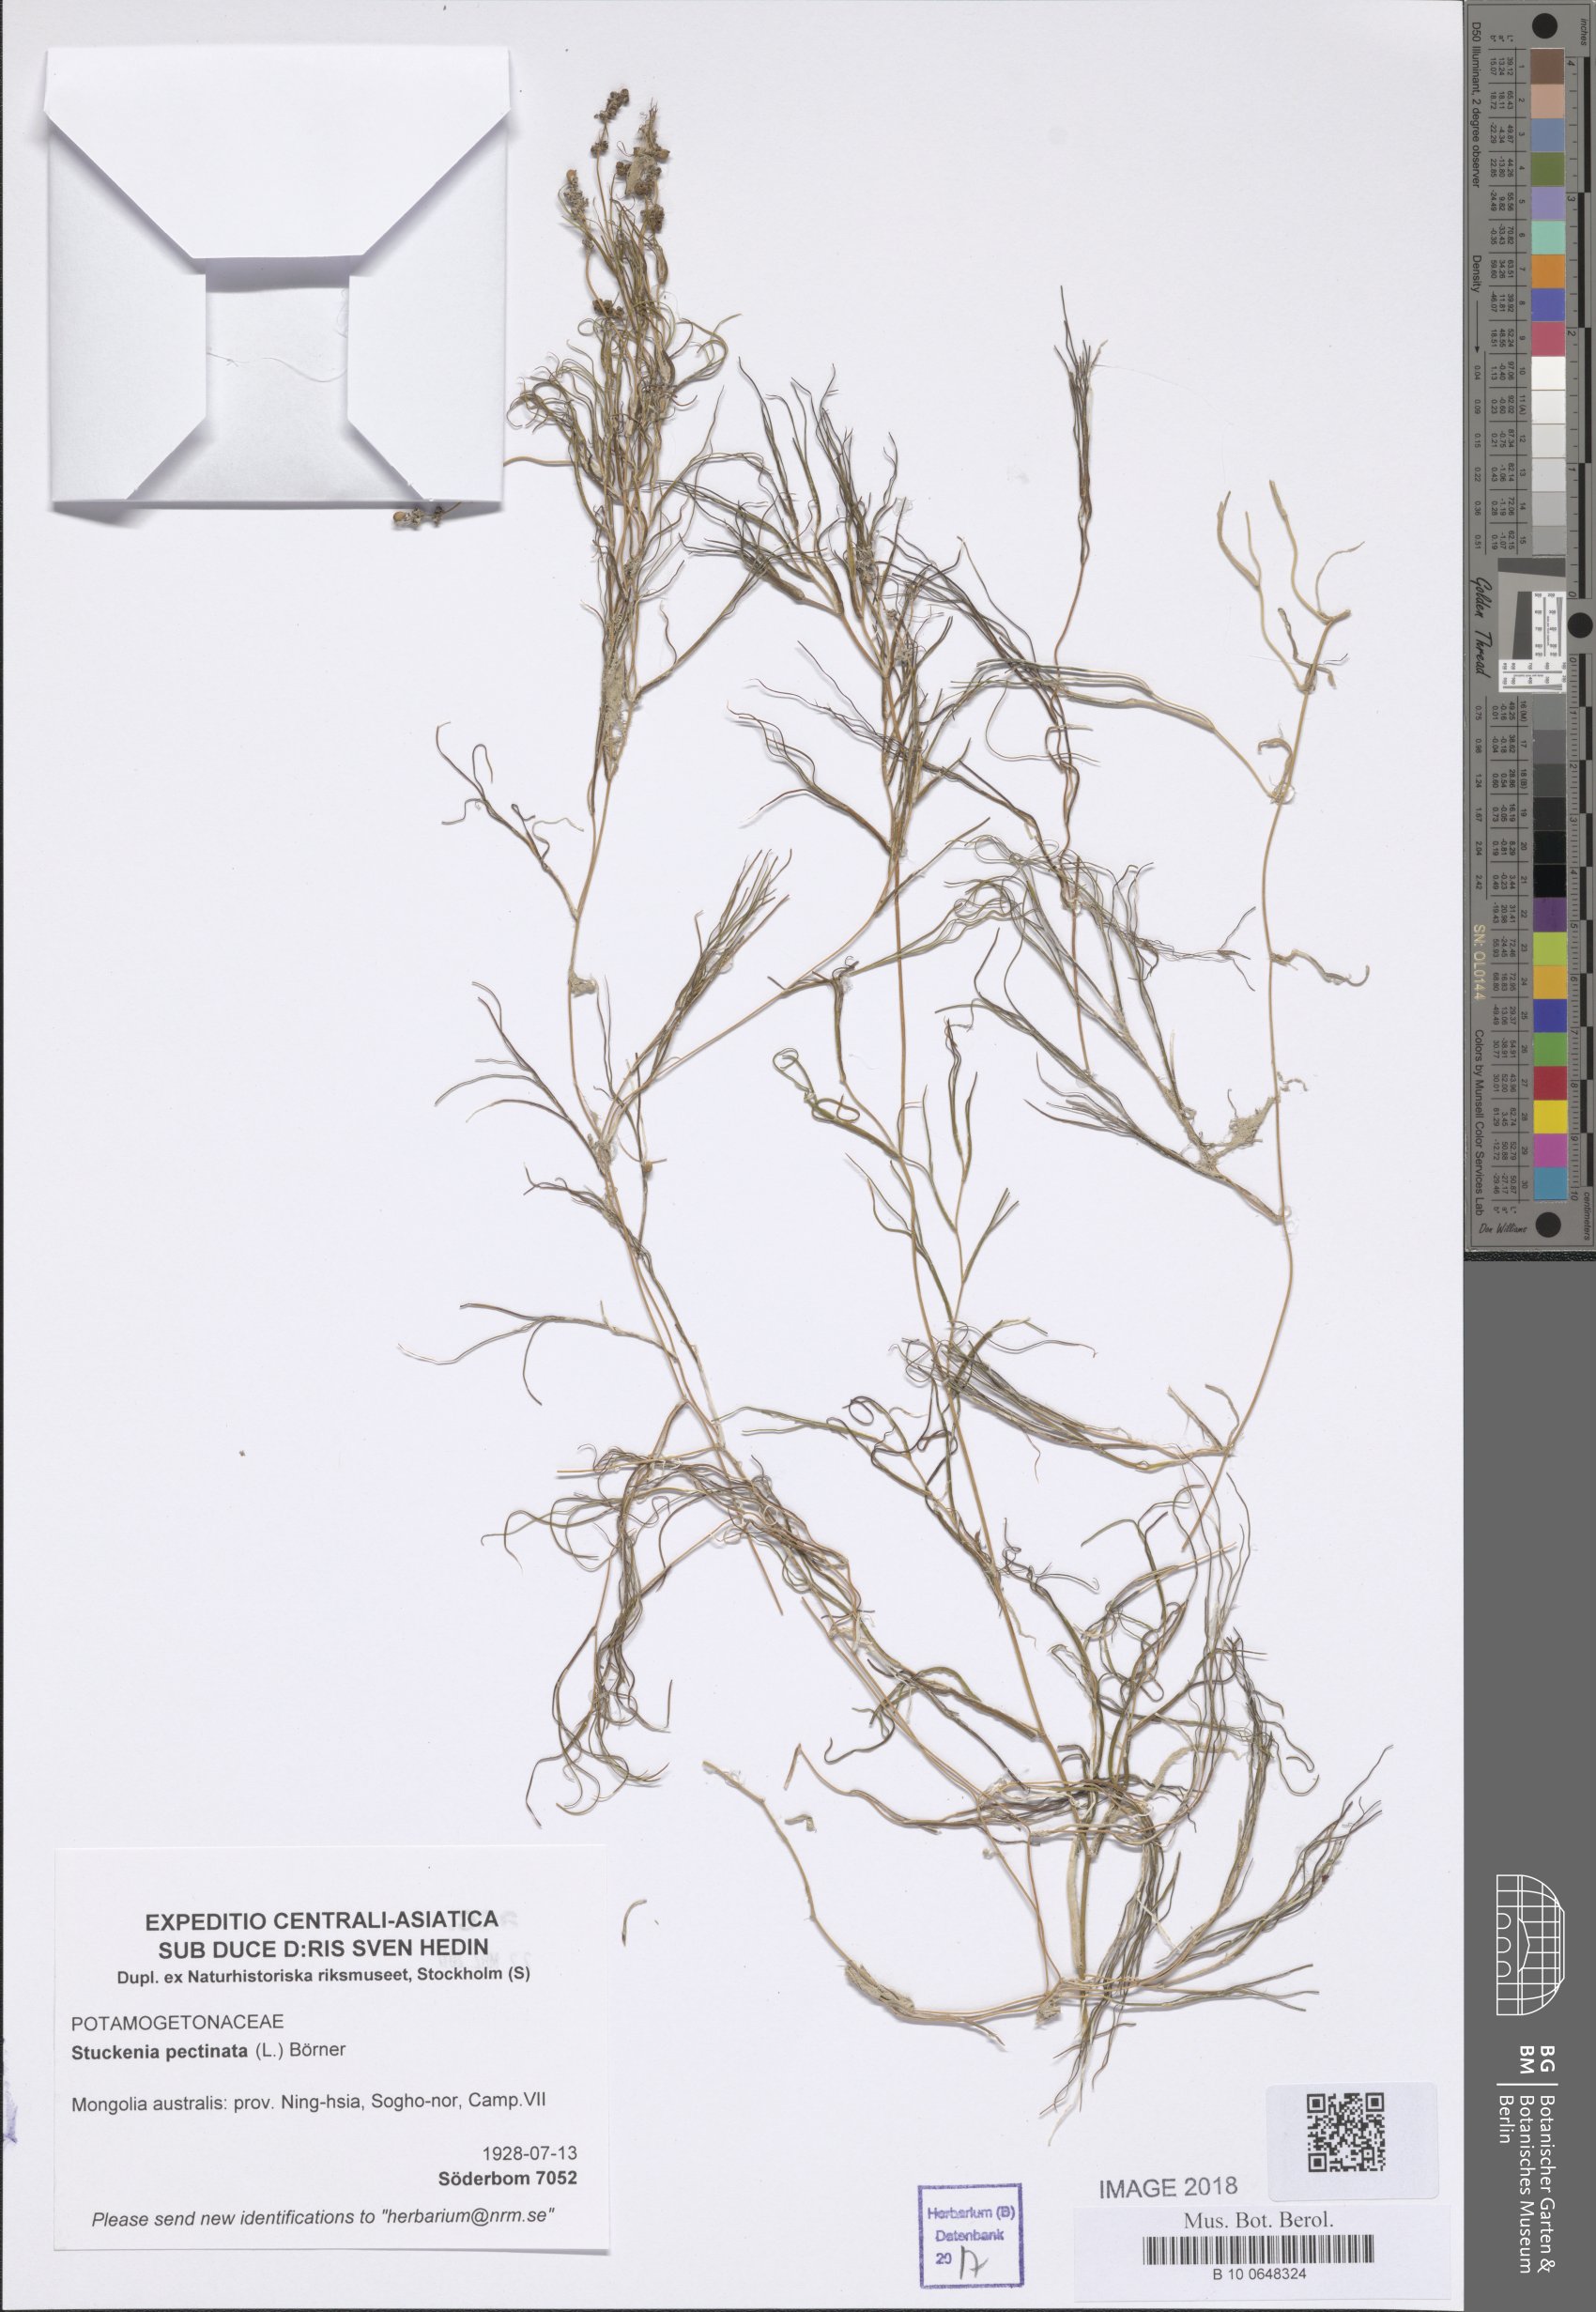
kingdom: Plantae
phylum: Tracheophyta
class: Liliopsida
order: Alismatales
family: Potamogetonaceae
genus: Stuckenia
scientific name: Stuckenia pectinata
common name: Sago pondweed
